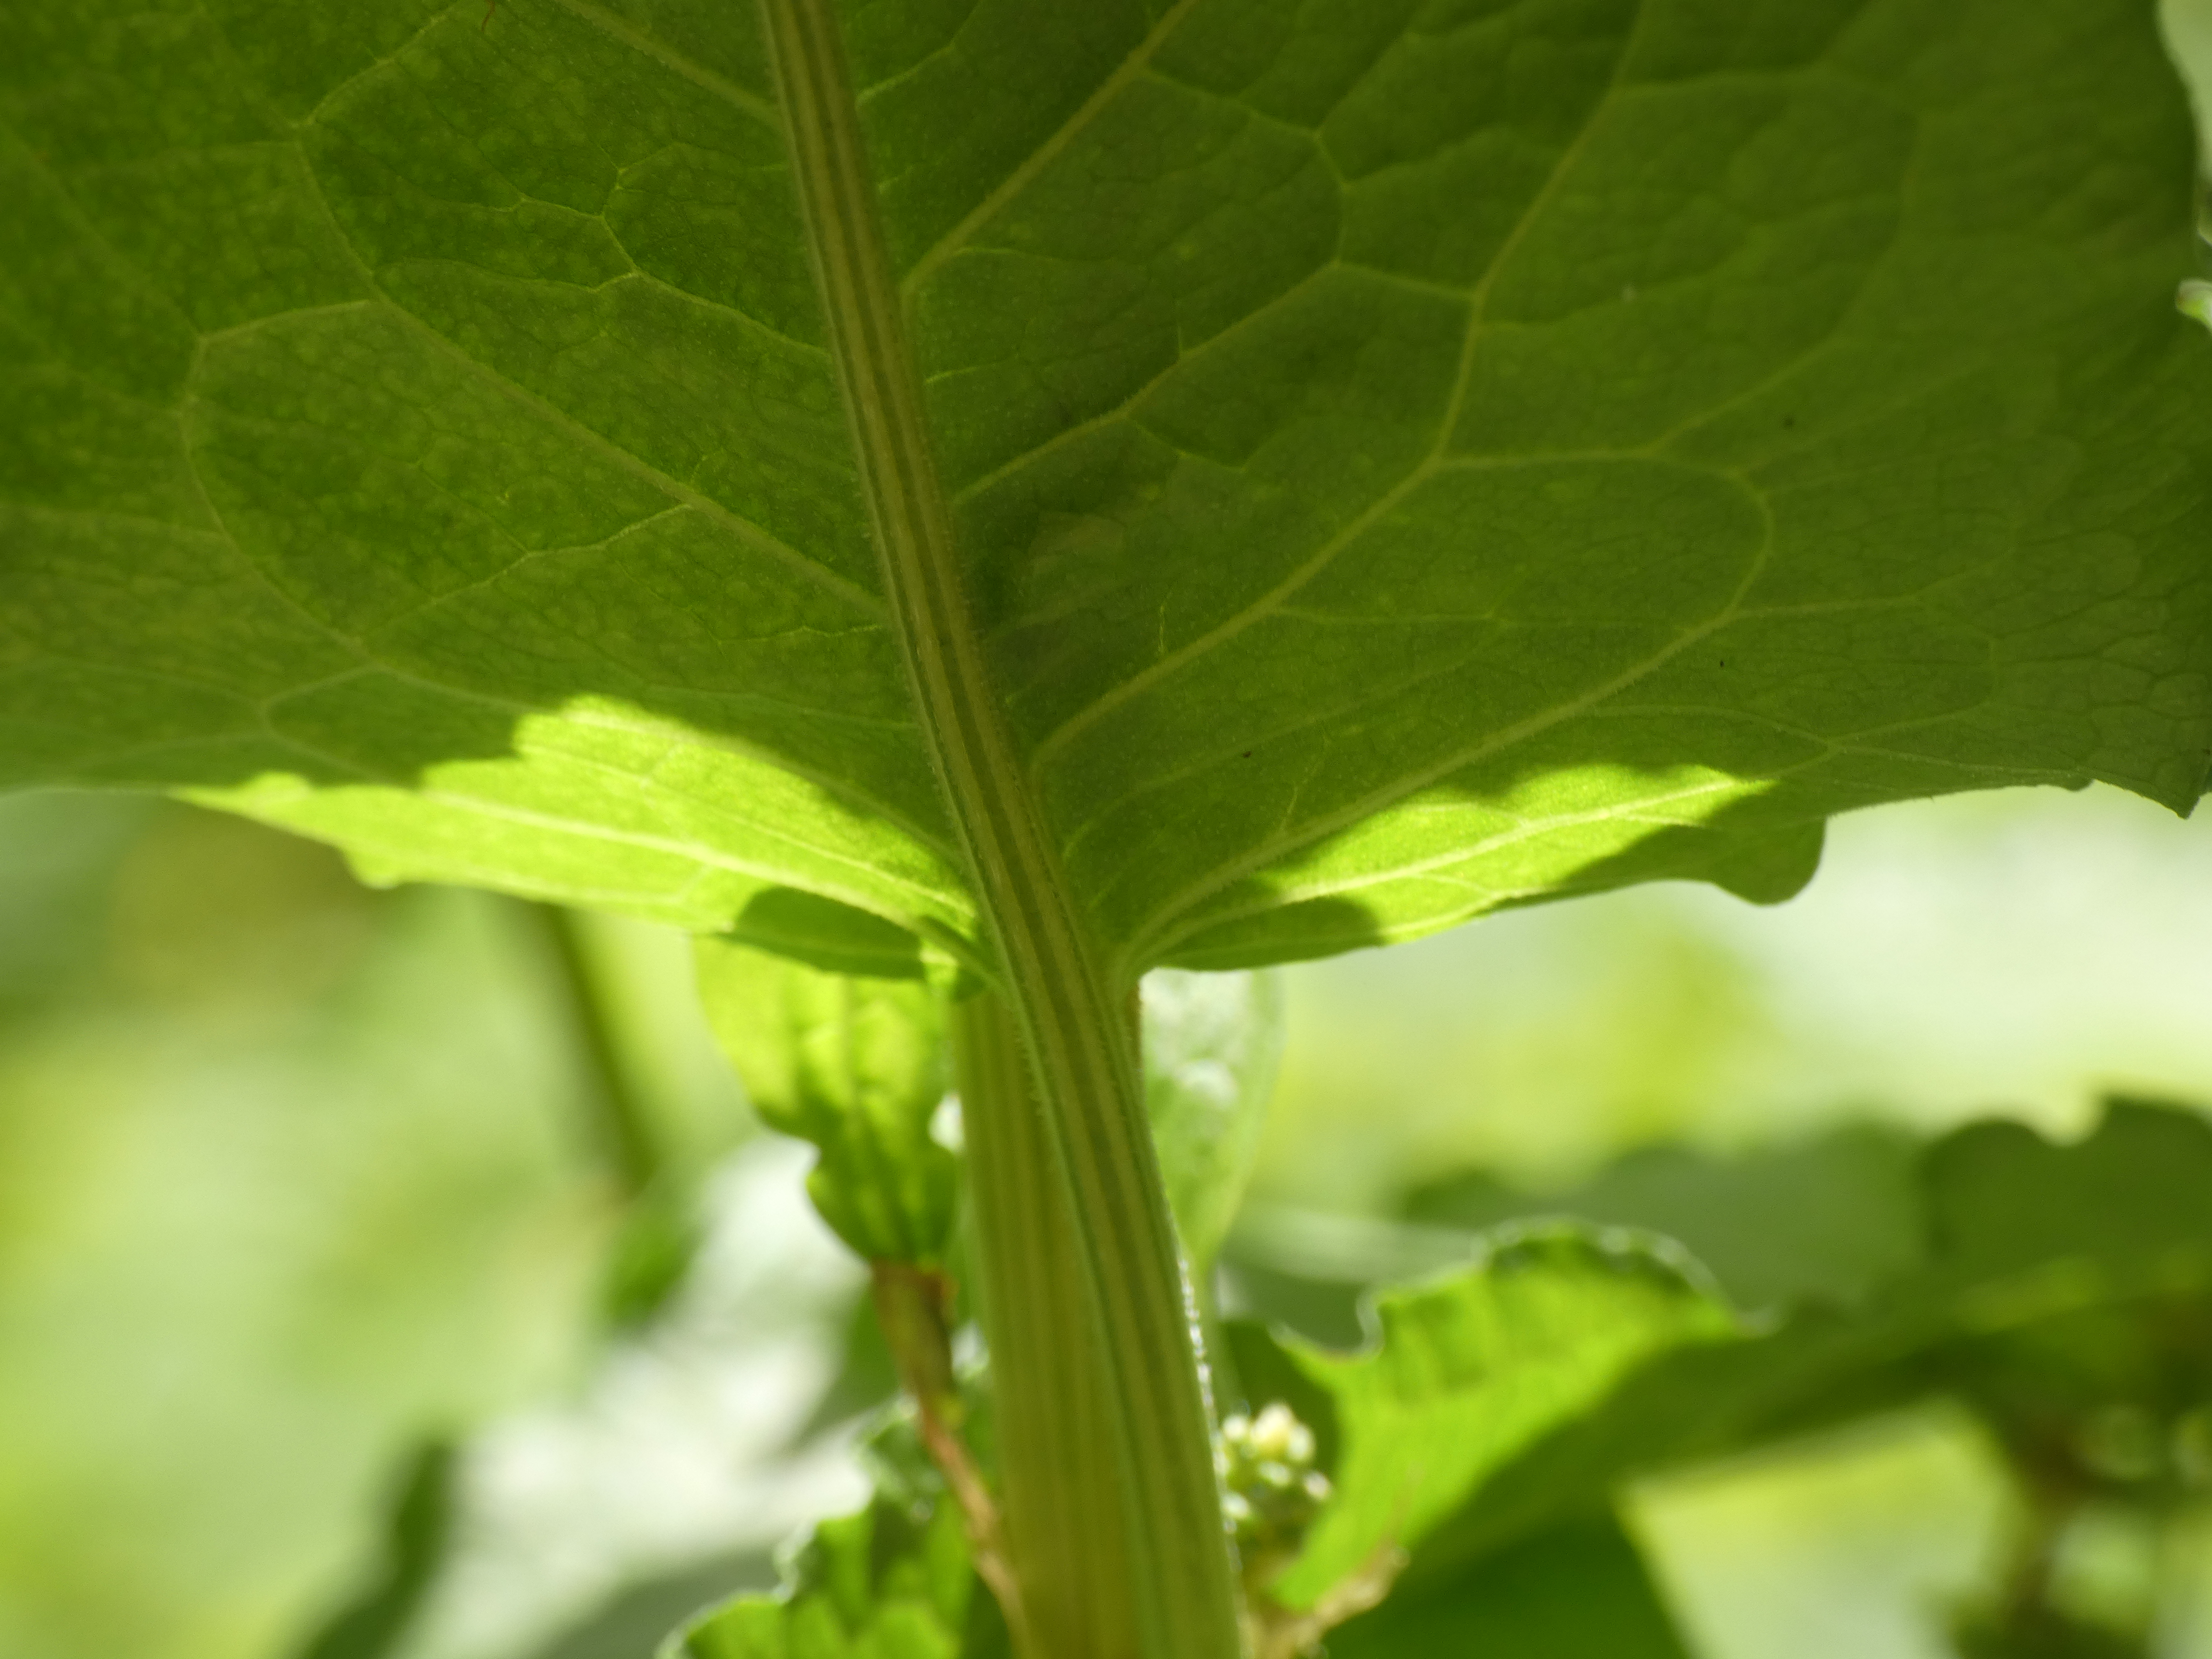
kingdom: Plantae
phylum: Tracheophyta
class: Magnoliopsida
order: Caryophyllales
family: Polygonaceae
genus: Rumex
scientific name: Rumex obtusifolius
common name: Butbladet skræppe
